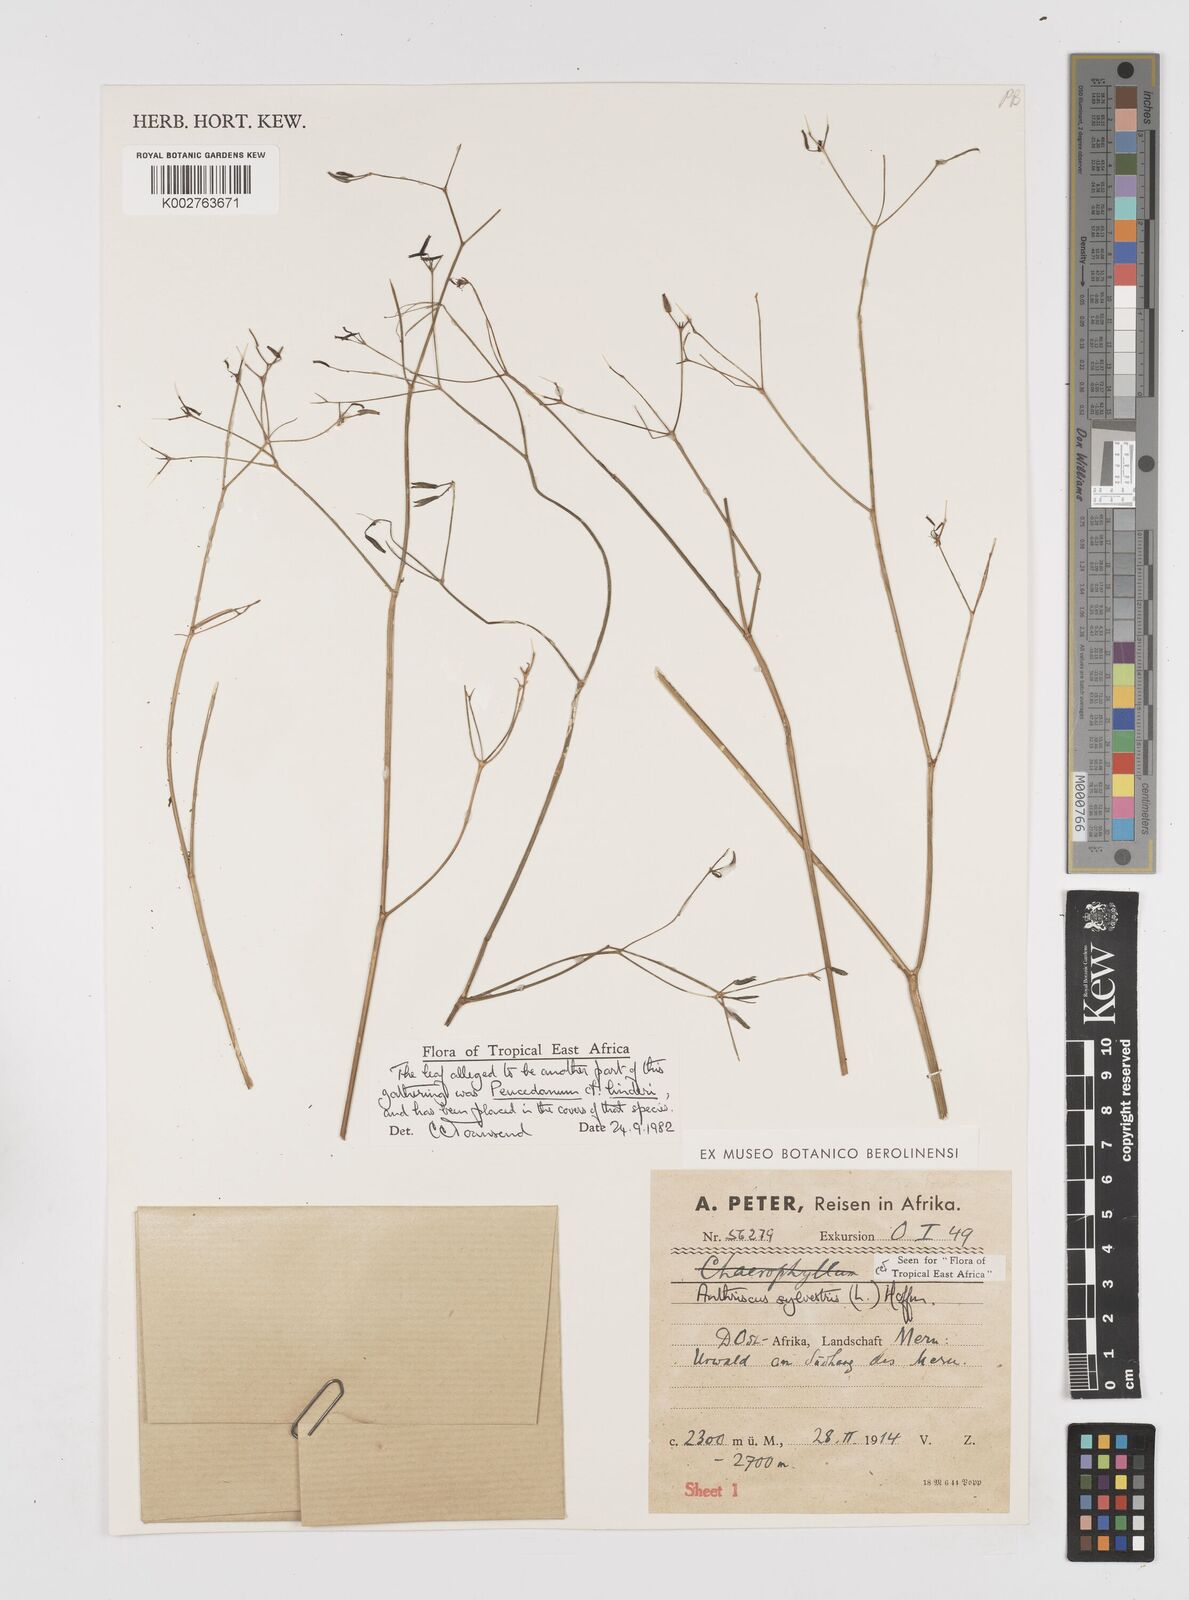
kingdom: Plantae
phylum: Tracheophyta
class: Magnoliopsida
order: Apiales
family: Apiaceae
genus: Anthriscus
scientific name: Anthriscus sylvestris
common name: Cow parsley
